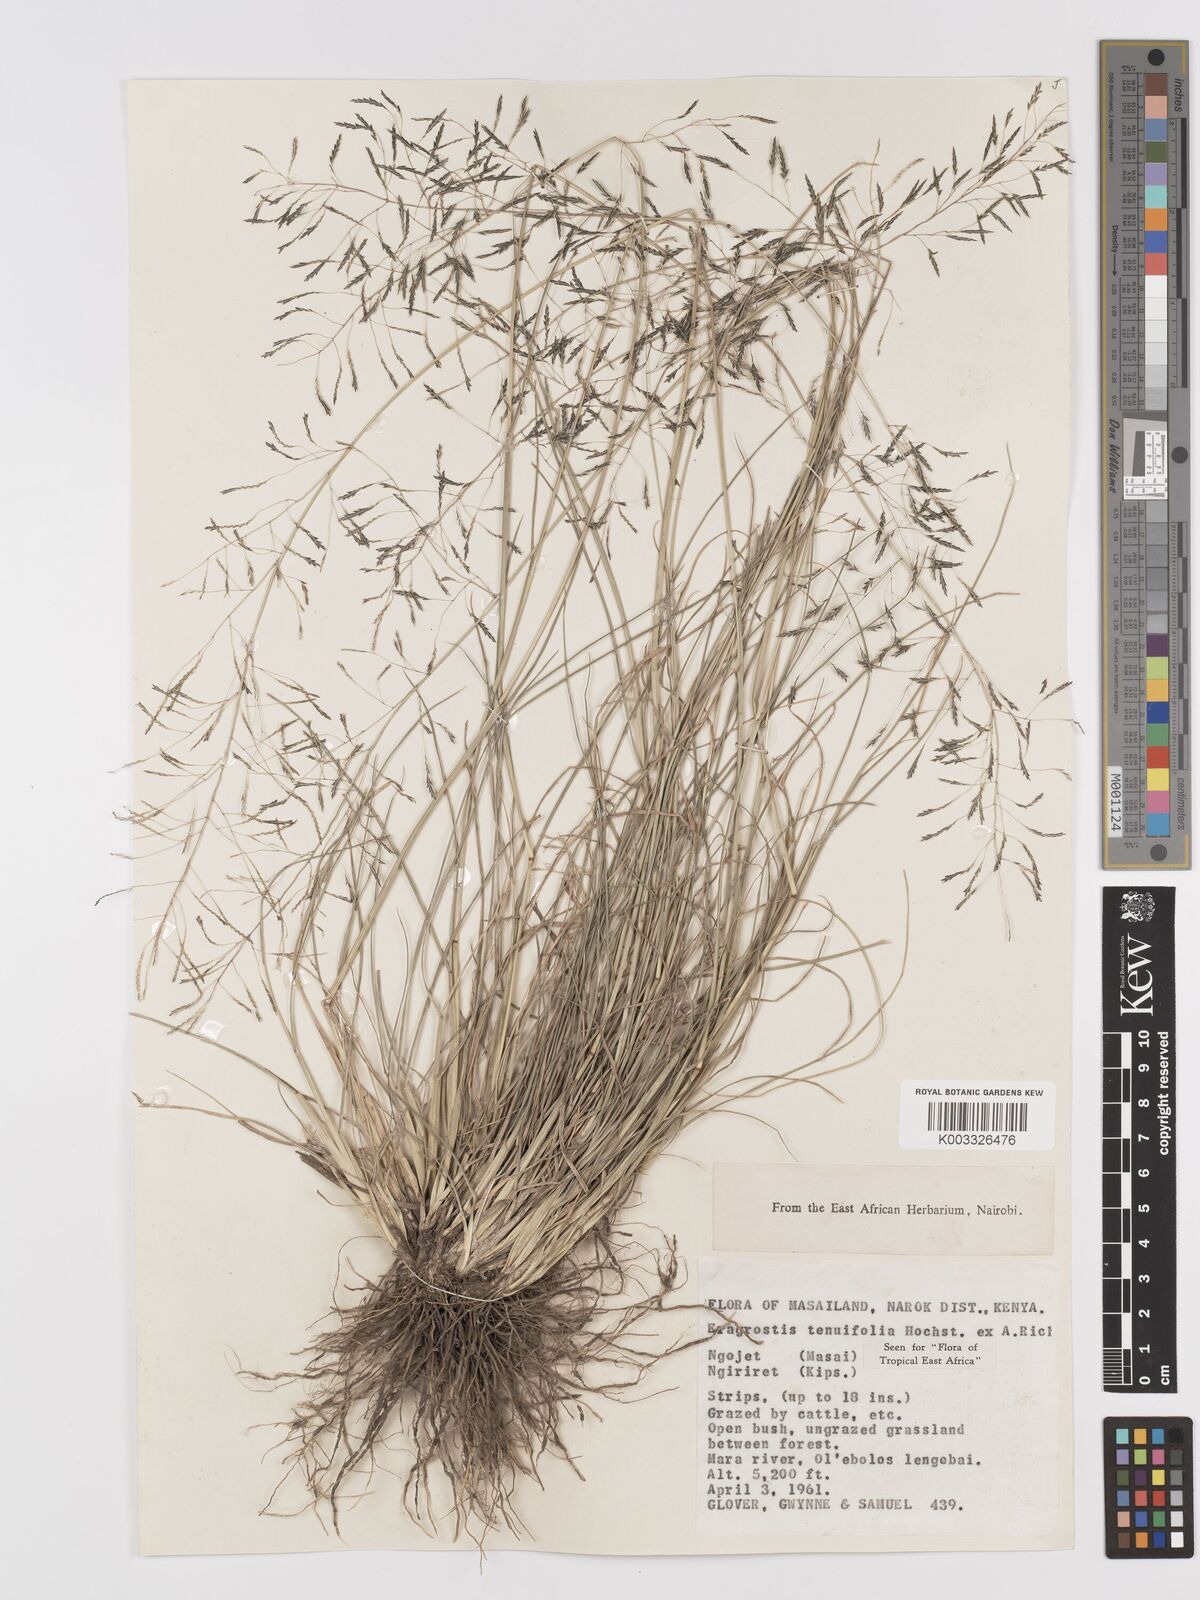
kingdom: Plantae
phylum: Tracheophyta
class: Liliopsida
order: Poales
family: Poaceae
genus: Eragrostis
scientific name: Eragrostis tenuifolia
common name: Elastic grass
